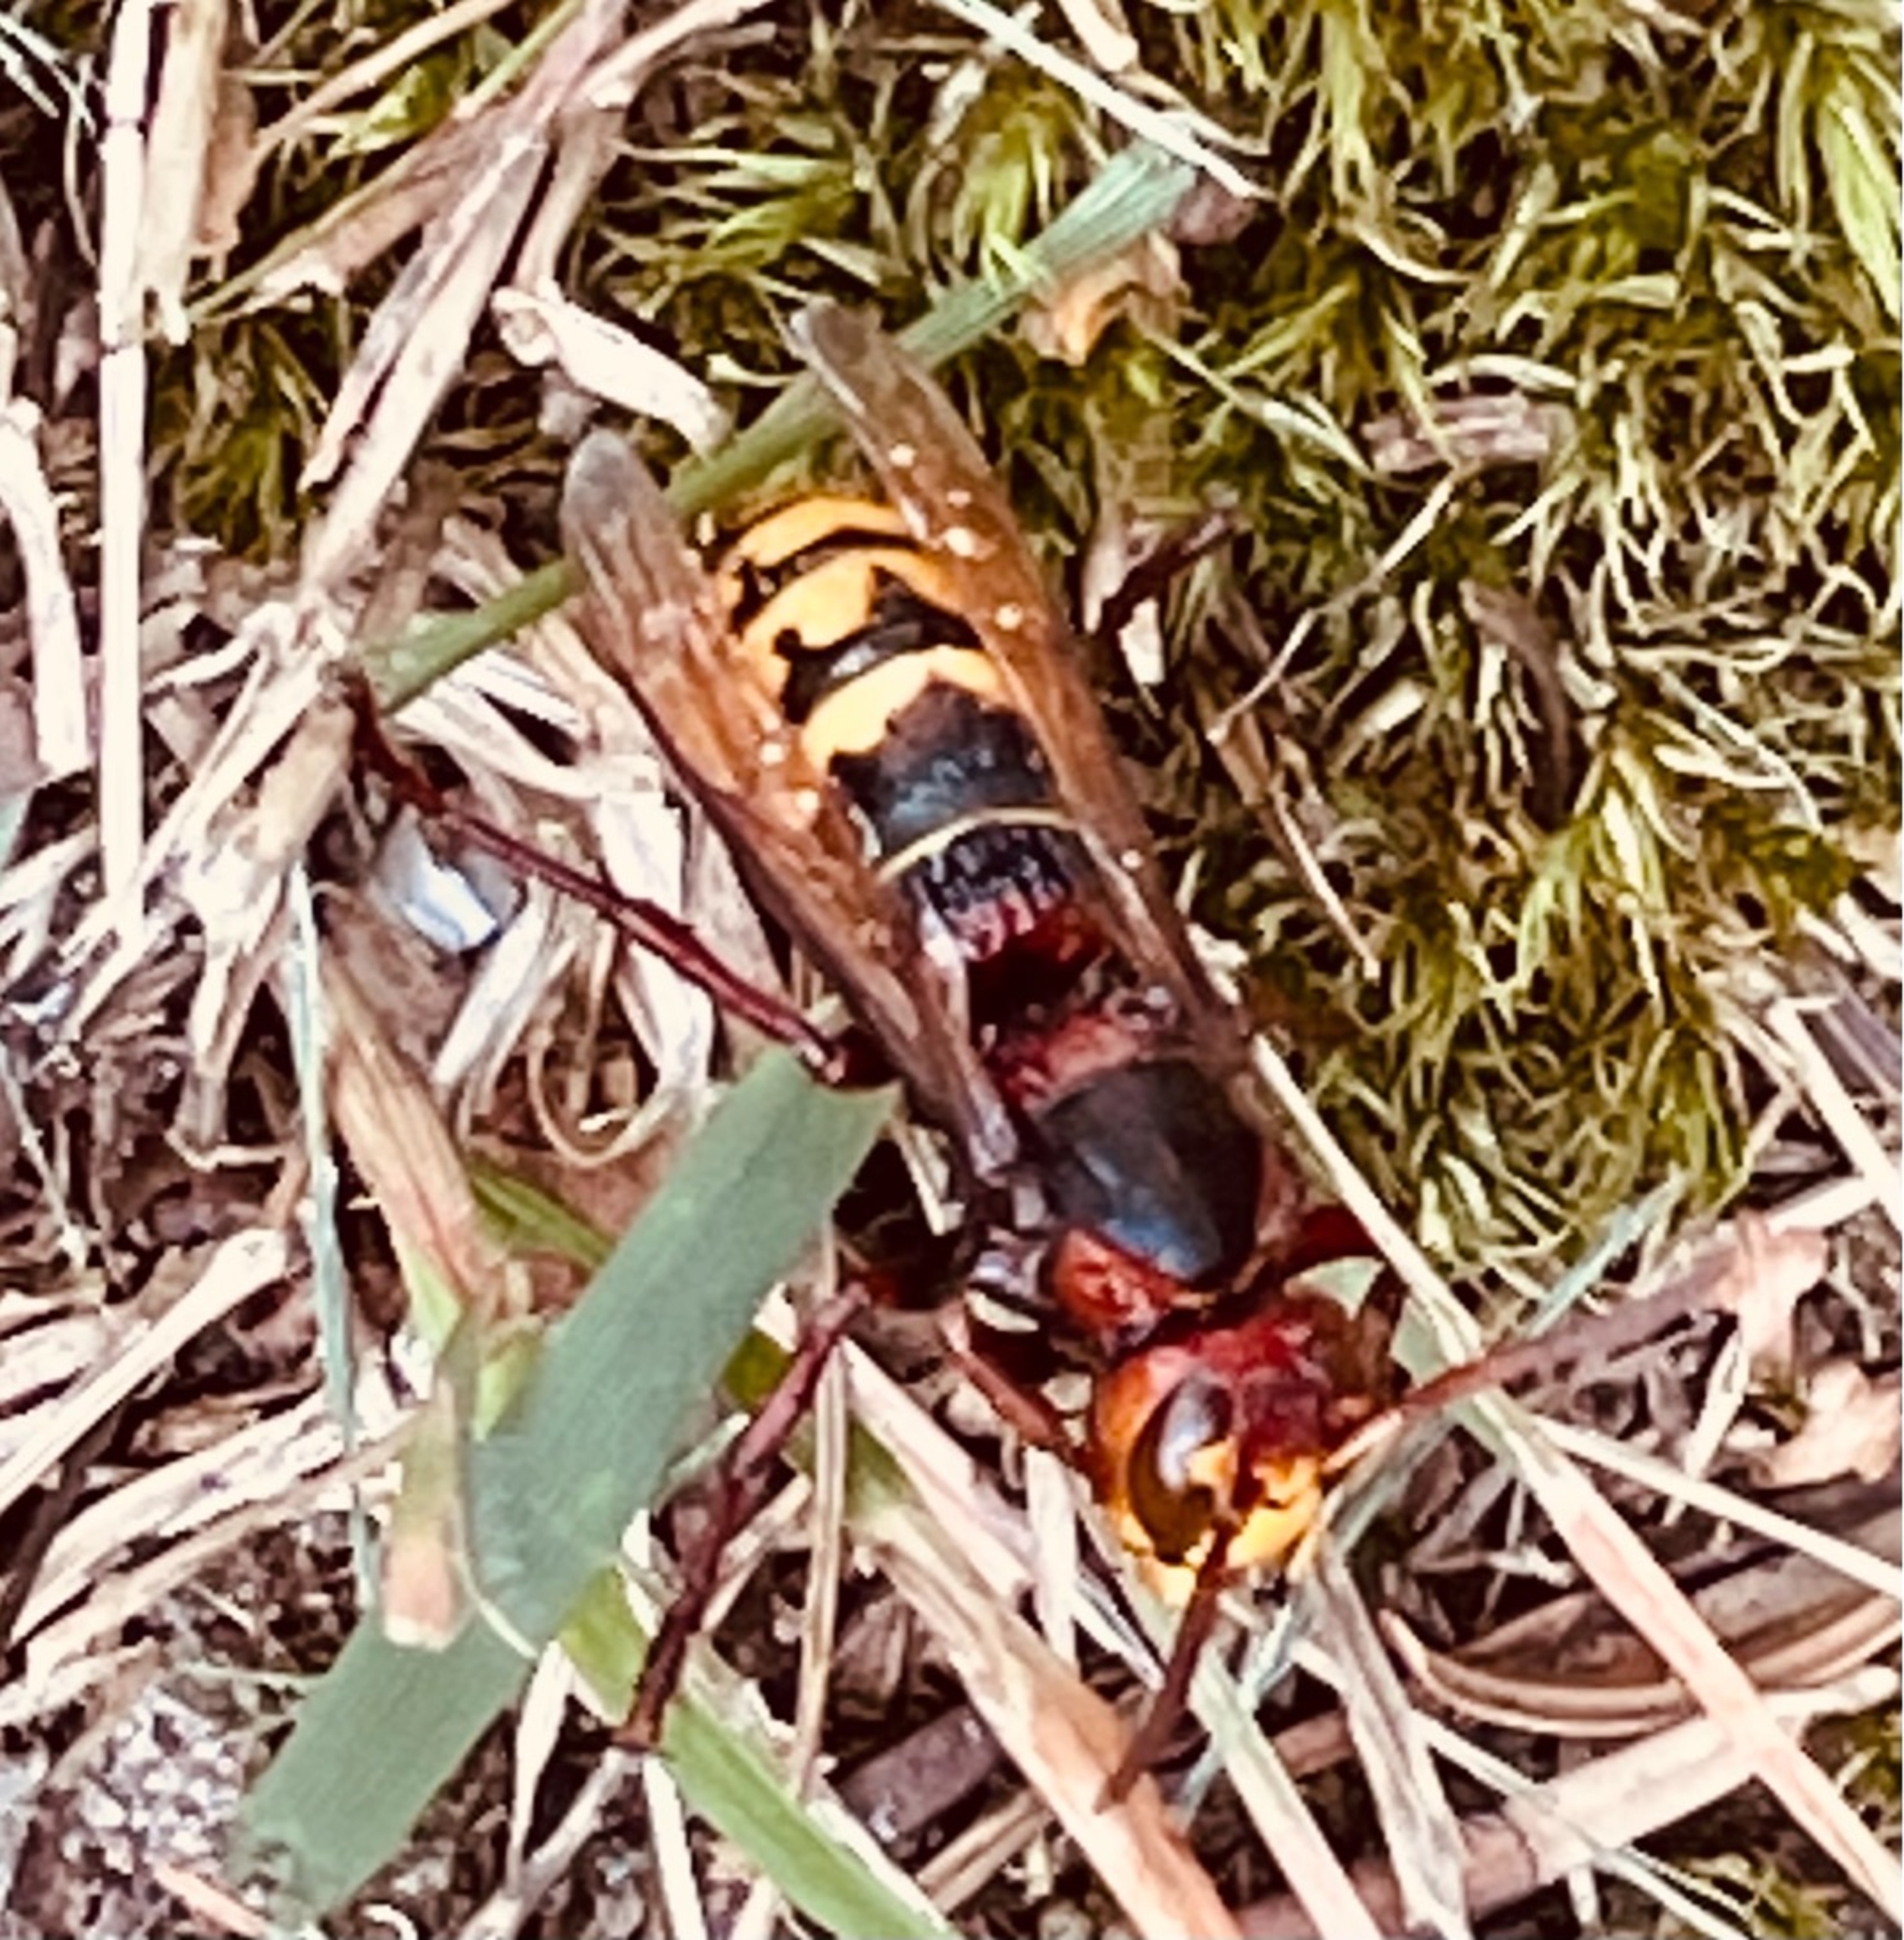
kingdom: Animalia
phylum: Arthropoda
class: Insecta
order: Hymenoptera
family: Vespidae
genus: Vespa
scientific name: Vespa crabro
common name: Stor gedehams
